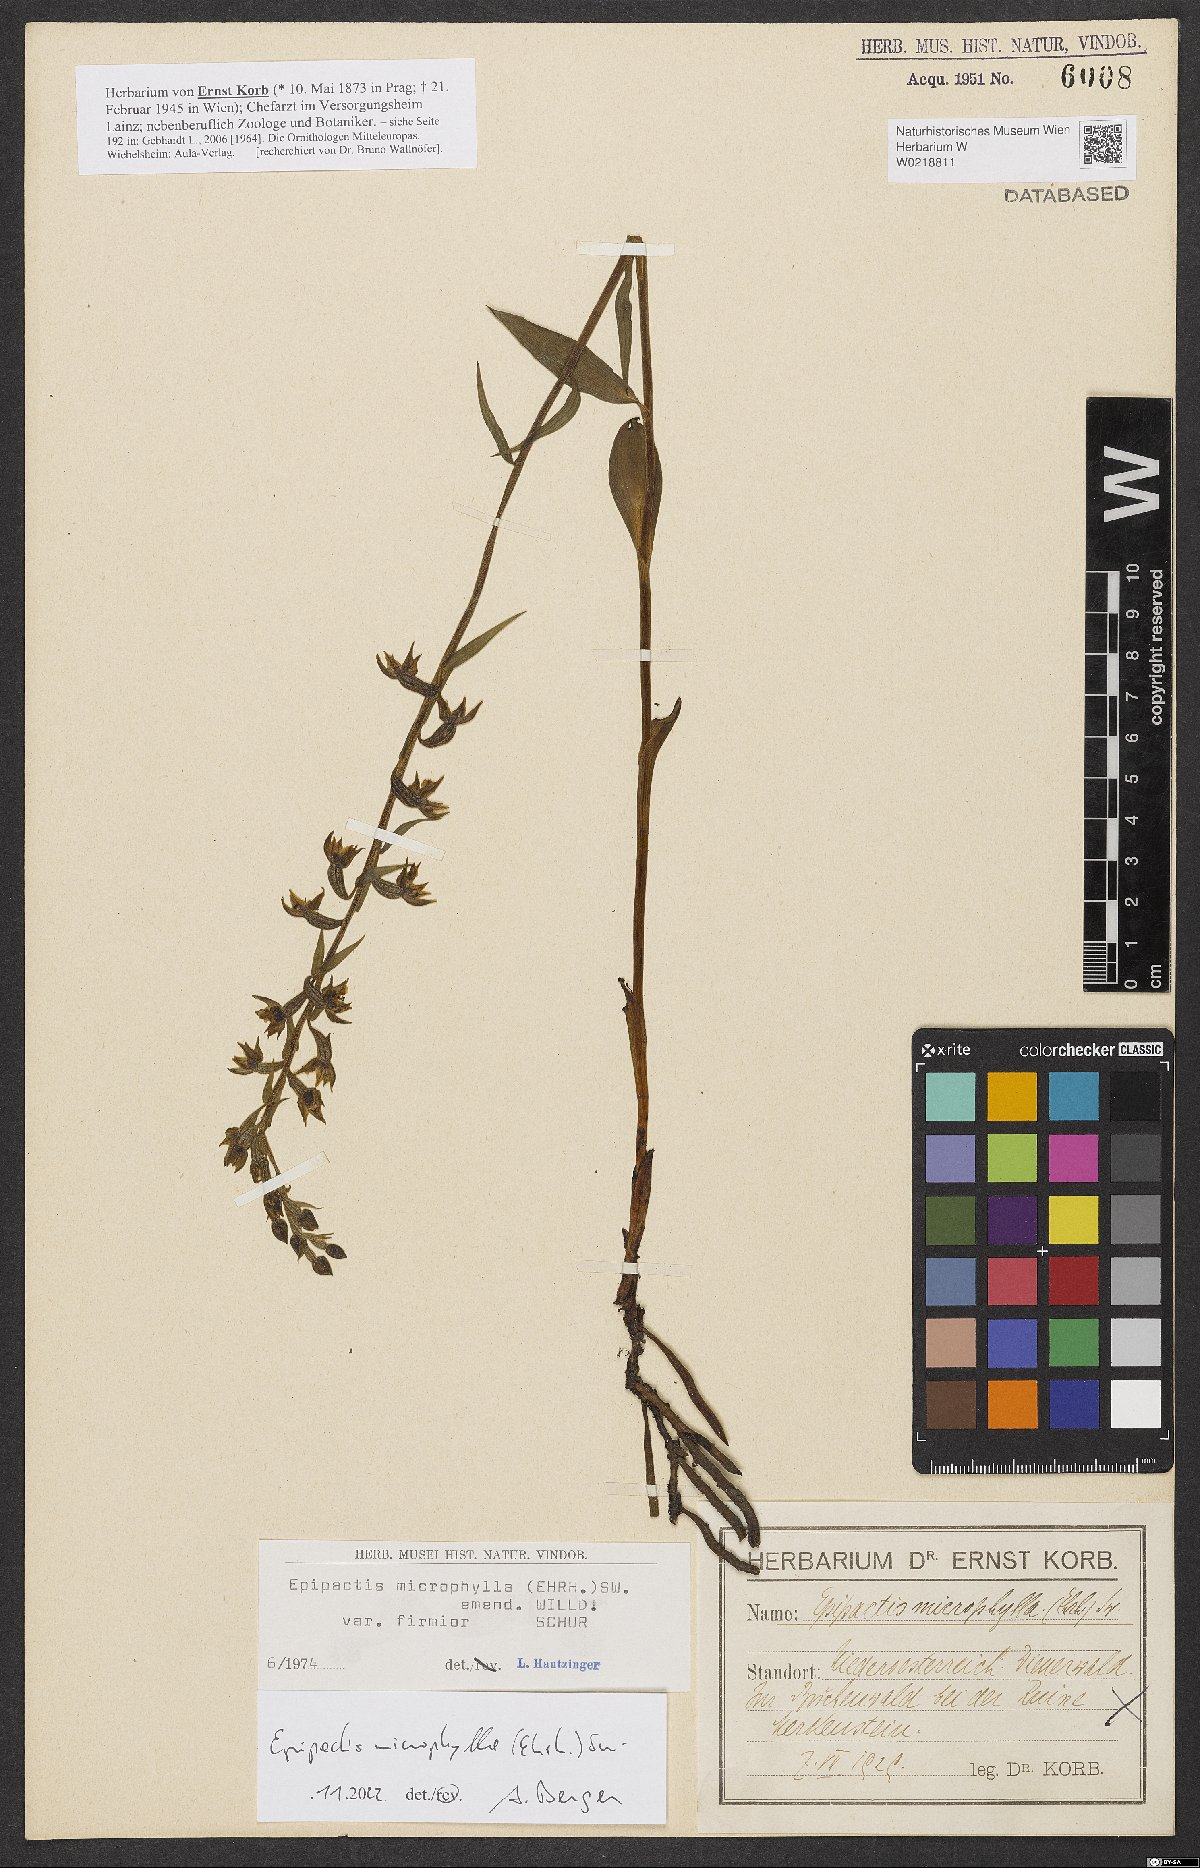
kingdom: Plantae
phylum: Tracheophyta
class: Liliopsida
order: Asparagales
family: Orchidaceae
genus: Epipactis
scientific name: Epipactis microphylla
